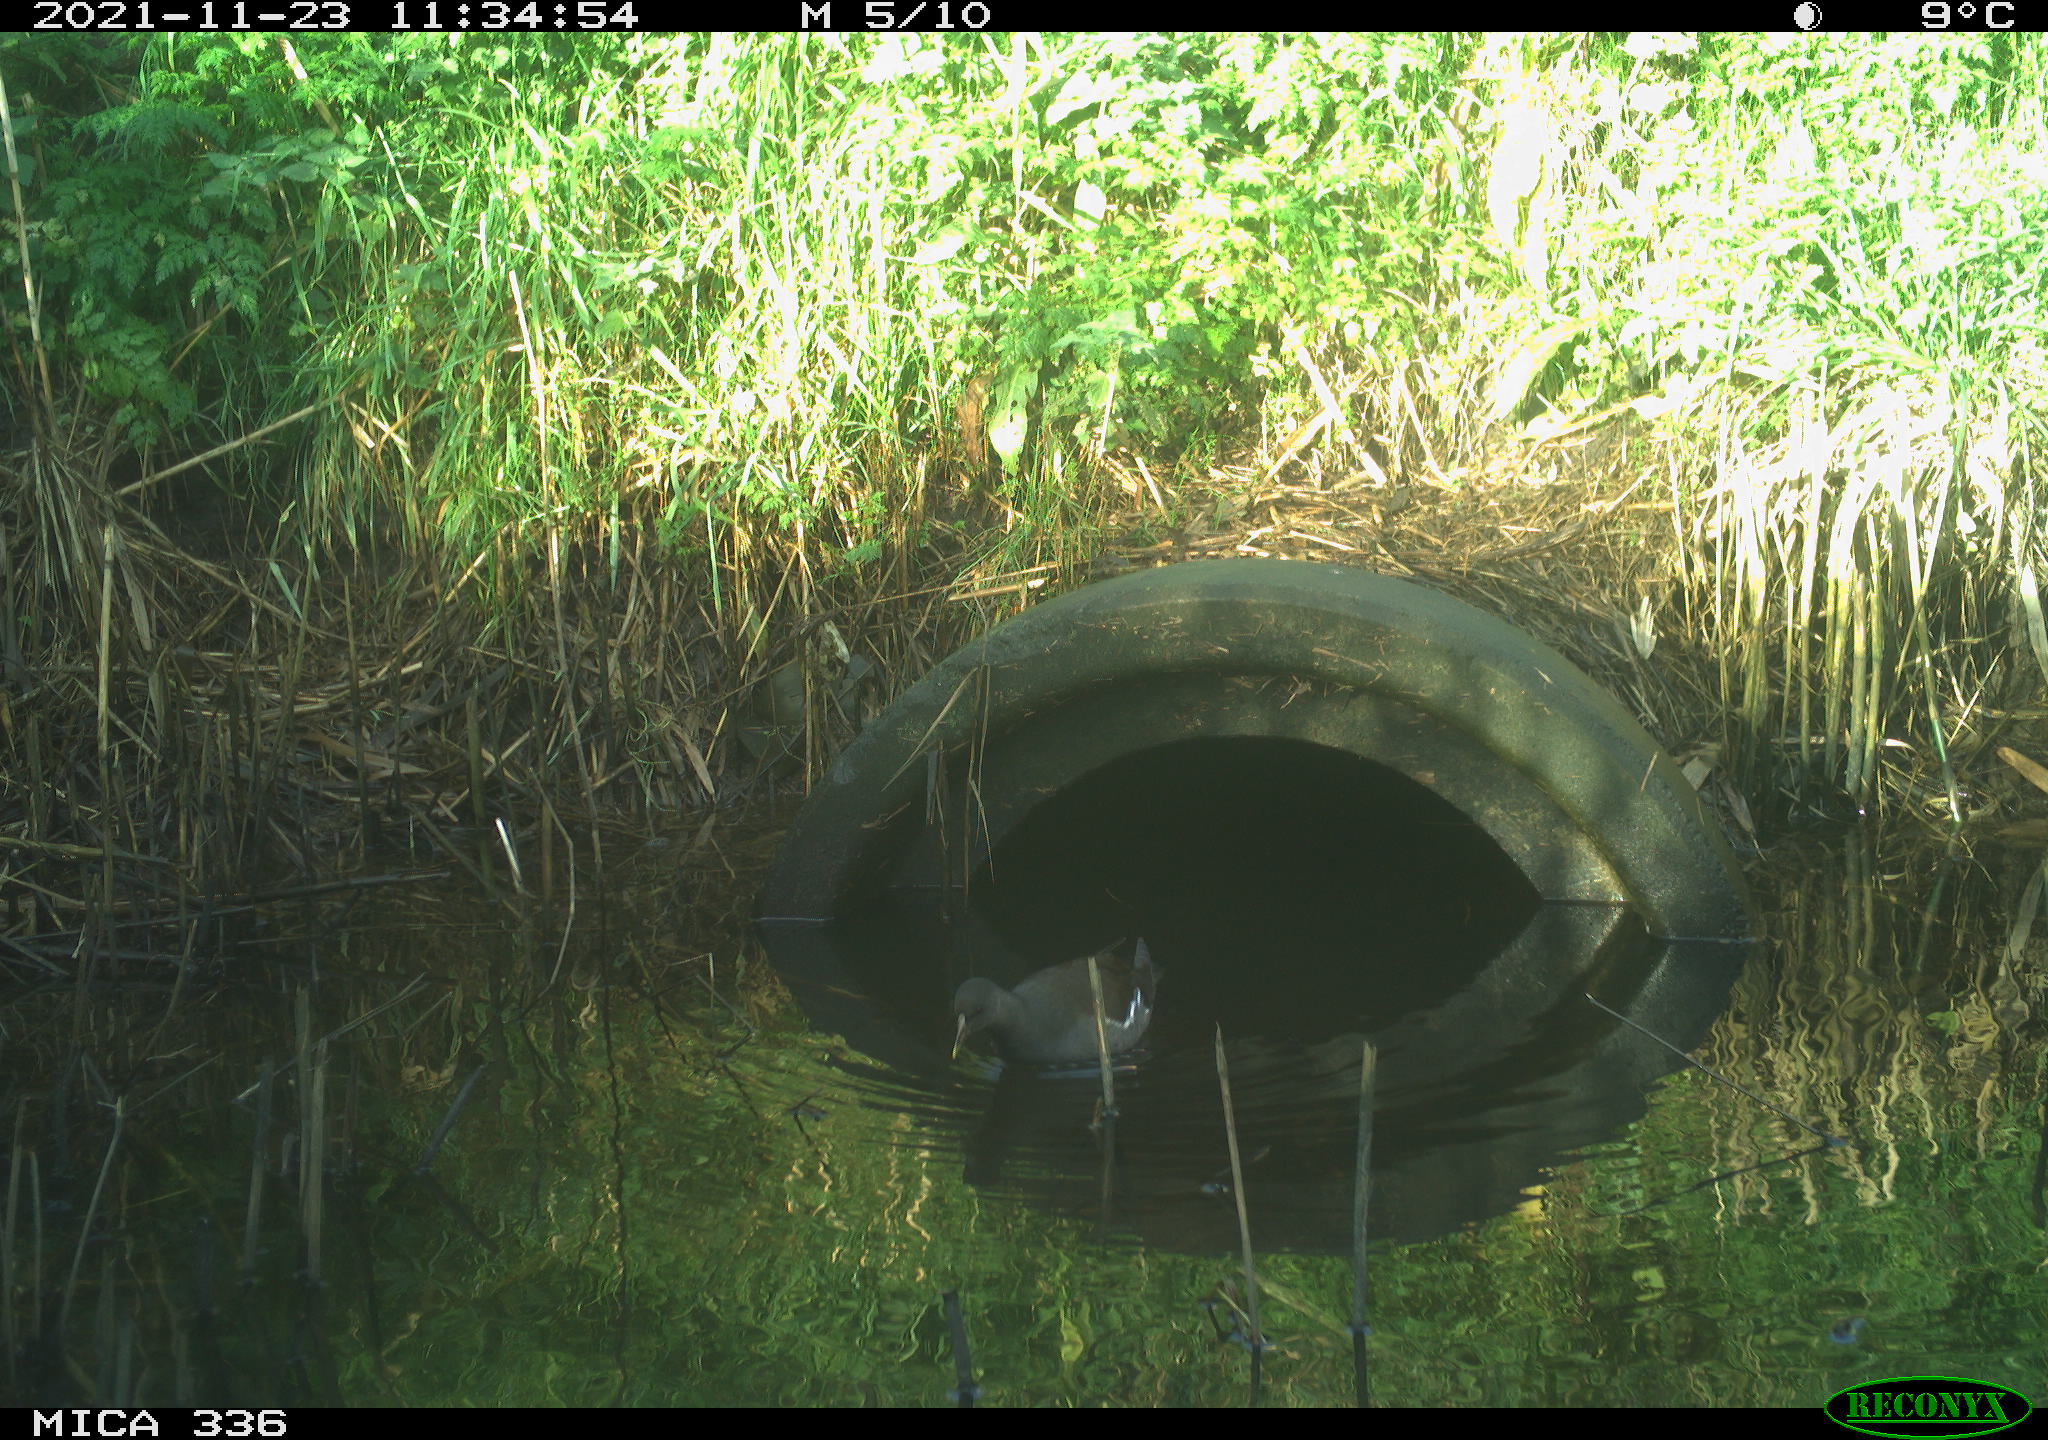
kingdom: Animalia
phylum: Chordata
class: Aves
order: Gruiformes
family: Rallidae
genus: Gallinula
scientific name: Gallinula chloropus
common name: Common moorhen
